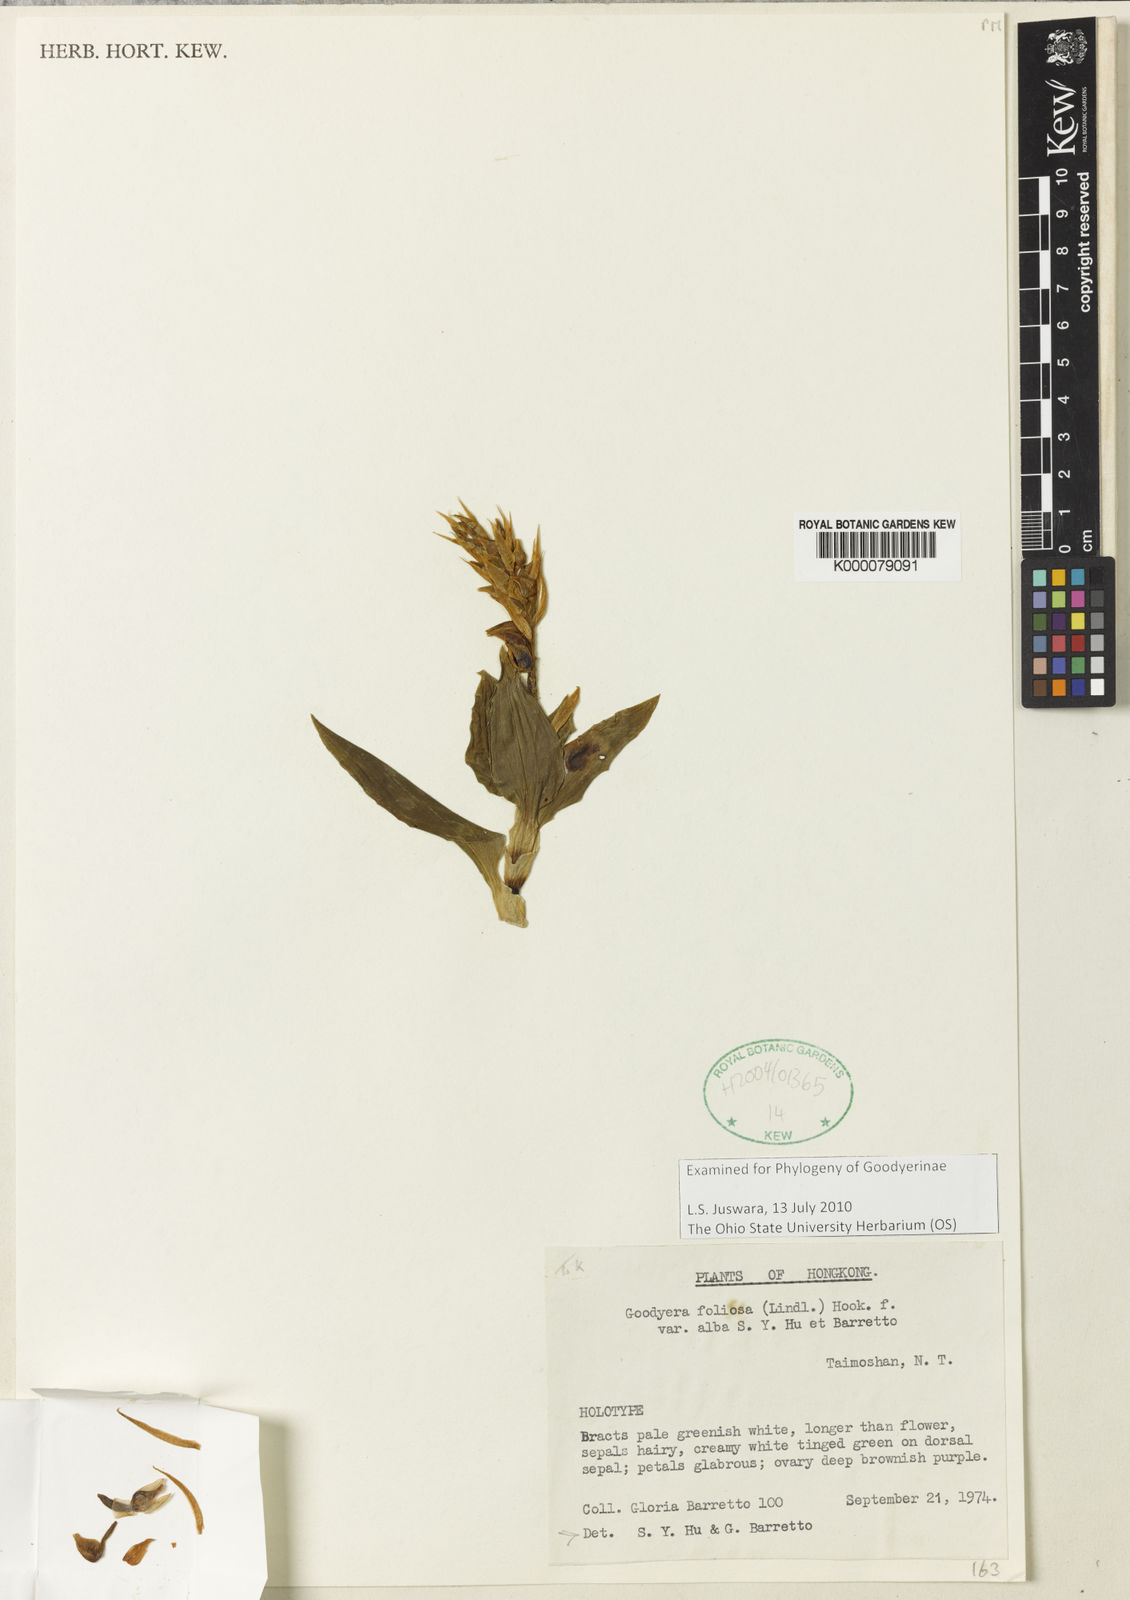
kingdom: Plantae
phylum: Tracheophyta
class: Liliopsida
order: Asparagales
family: Orchidaceae
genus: Goodyera
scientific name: Goodyera foliosa
